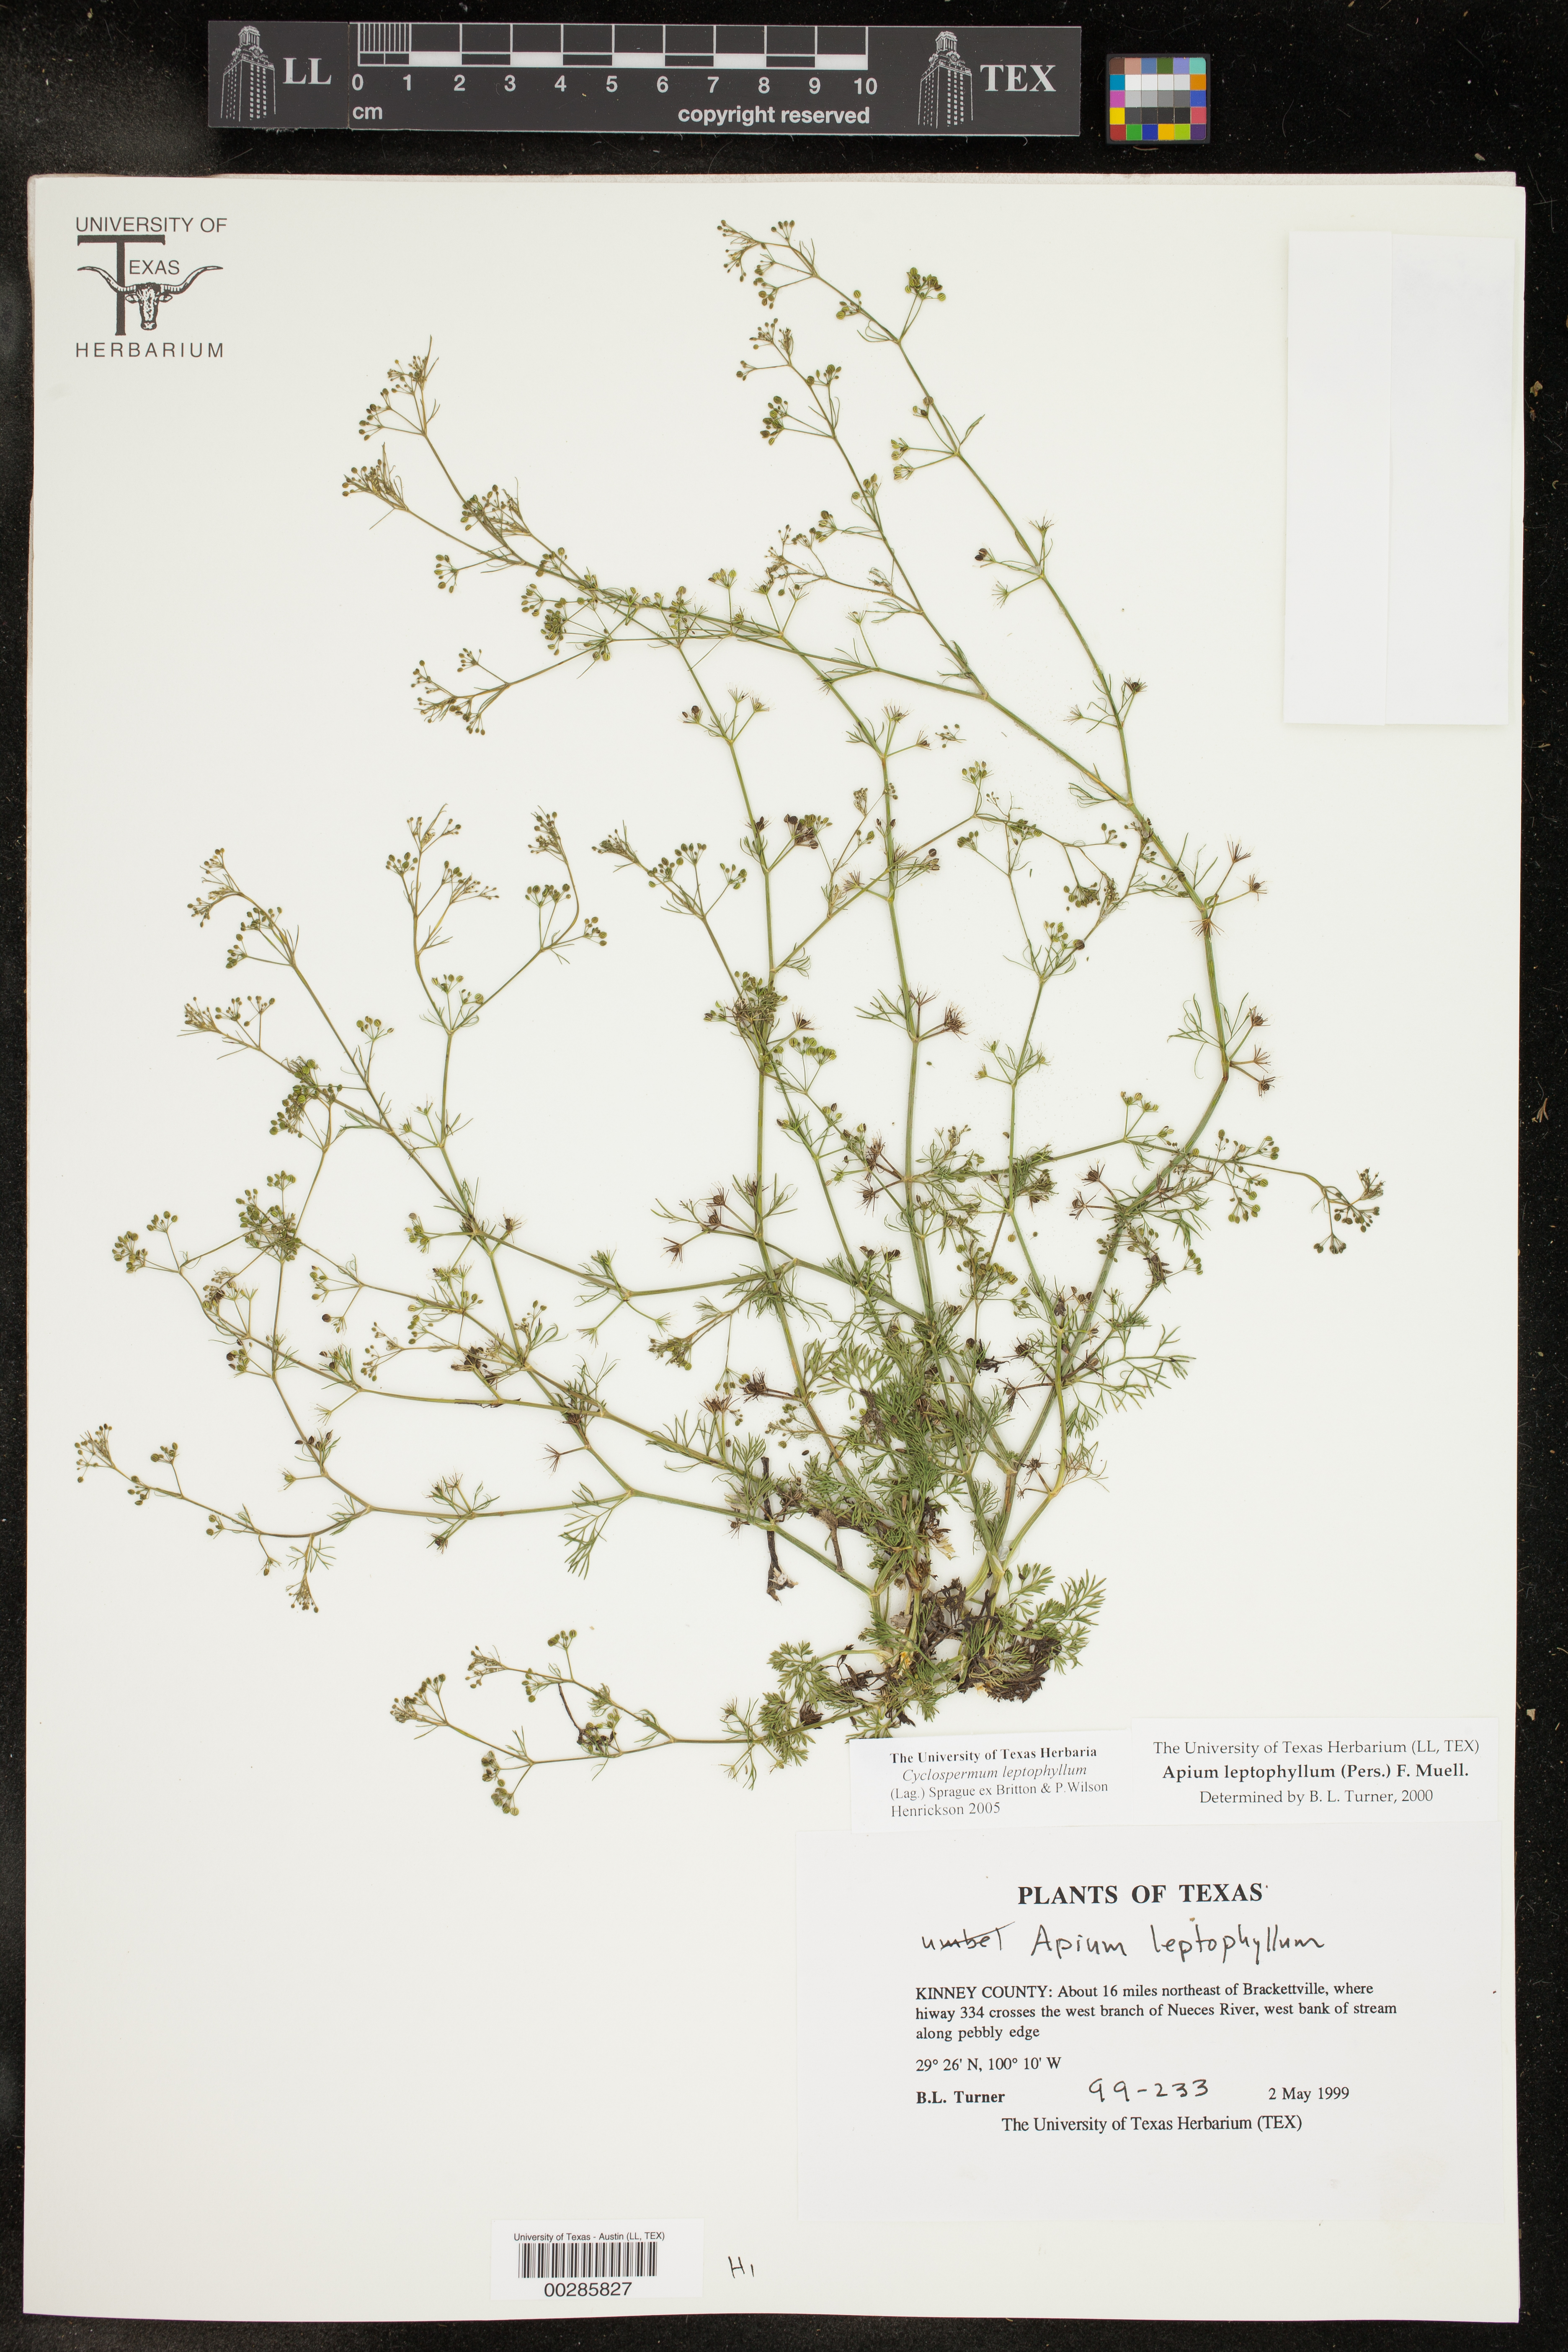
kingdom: Plantae
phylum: Tracheophyta
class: Magnoliopsida
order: Apiales
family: Apiaceae
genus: Cyclospermum
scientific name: Cyclospermum leptophyllum
